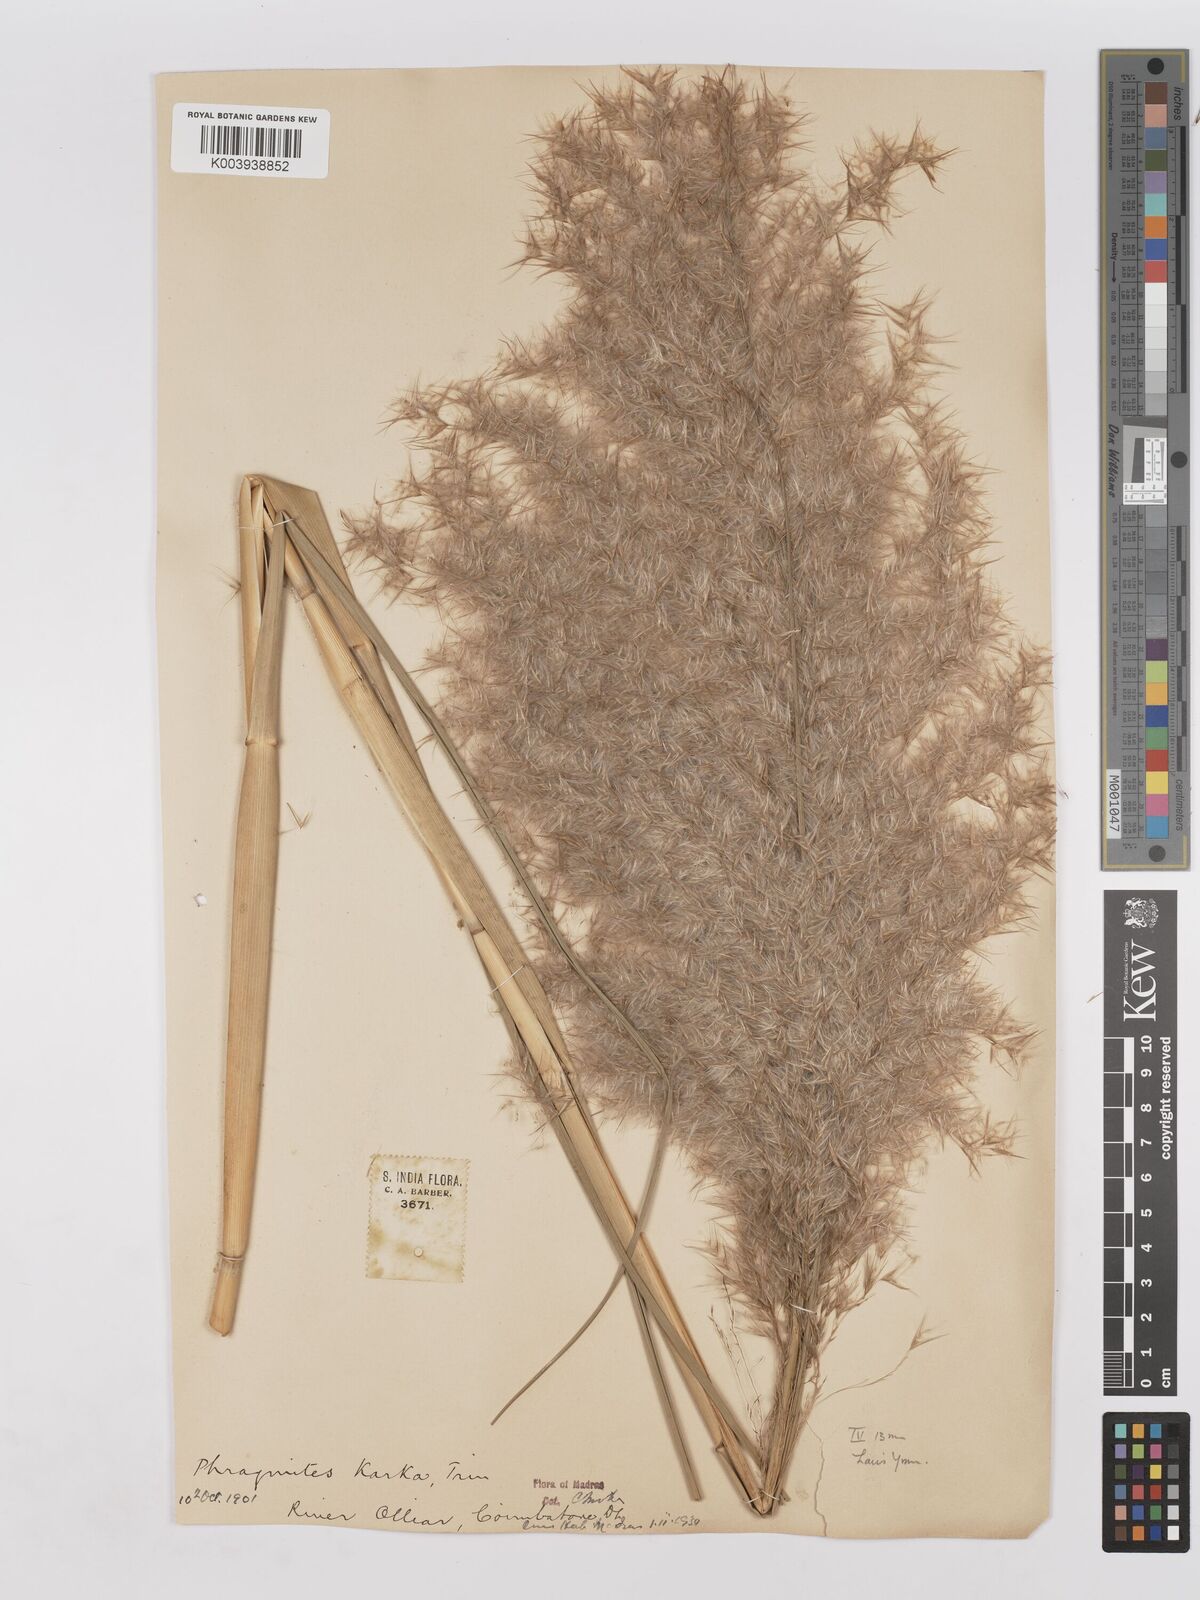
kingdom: Plantae
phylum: Tracheophyta
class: Liliopsida
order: Poales
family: Poaceae
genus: Phragmites
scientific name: Phragmites karka
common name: Tropical reed
